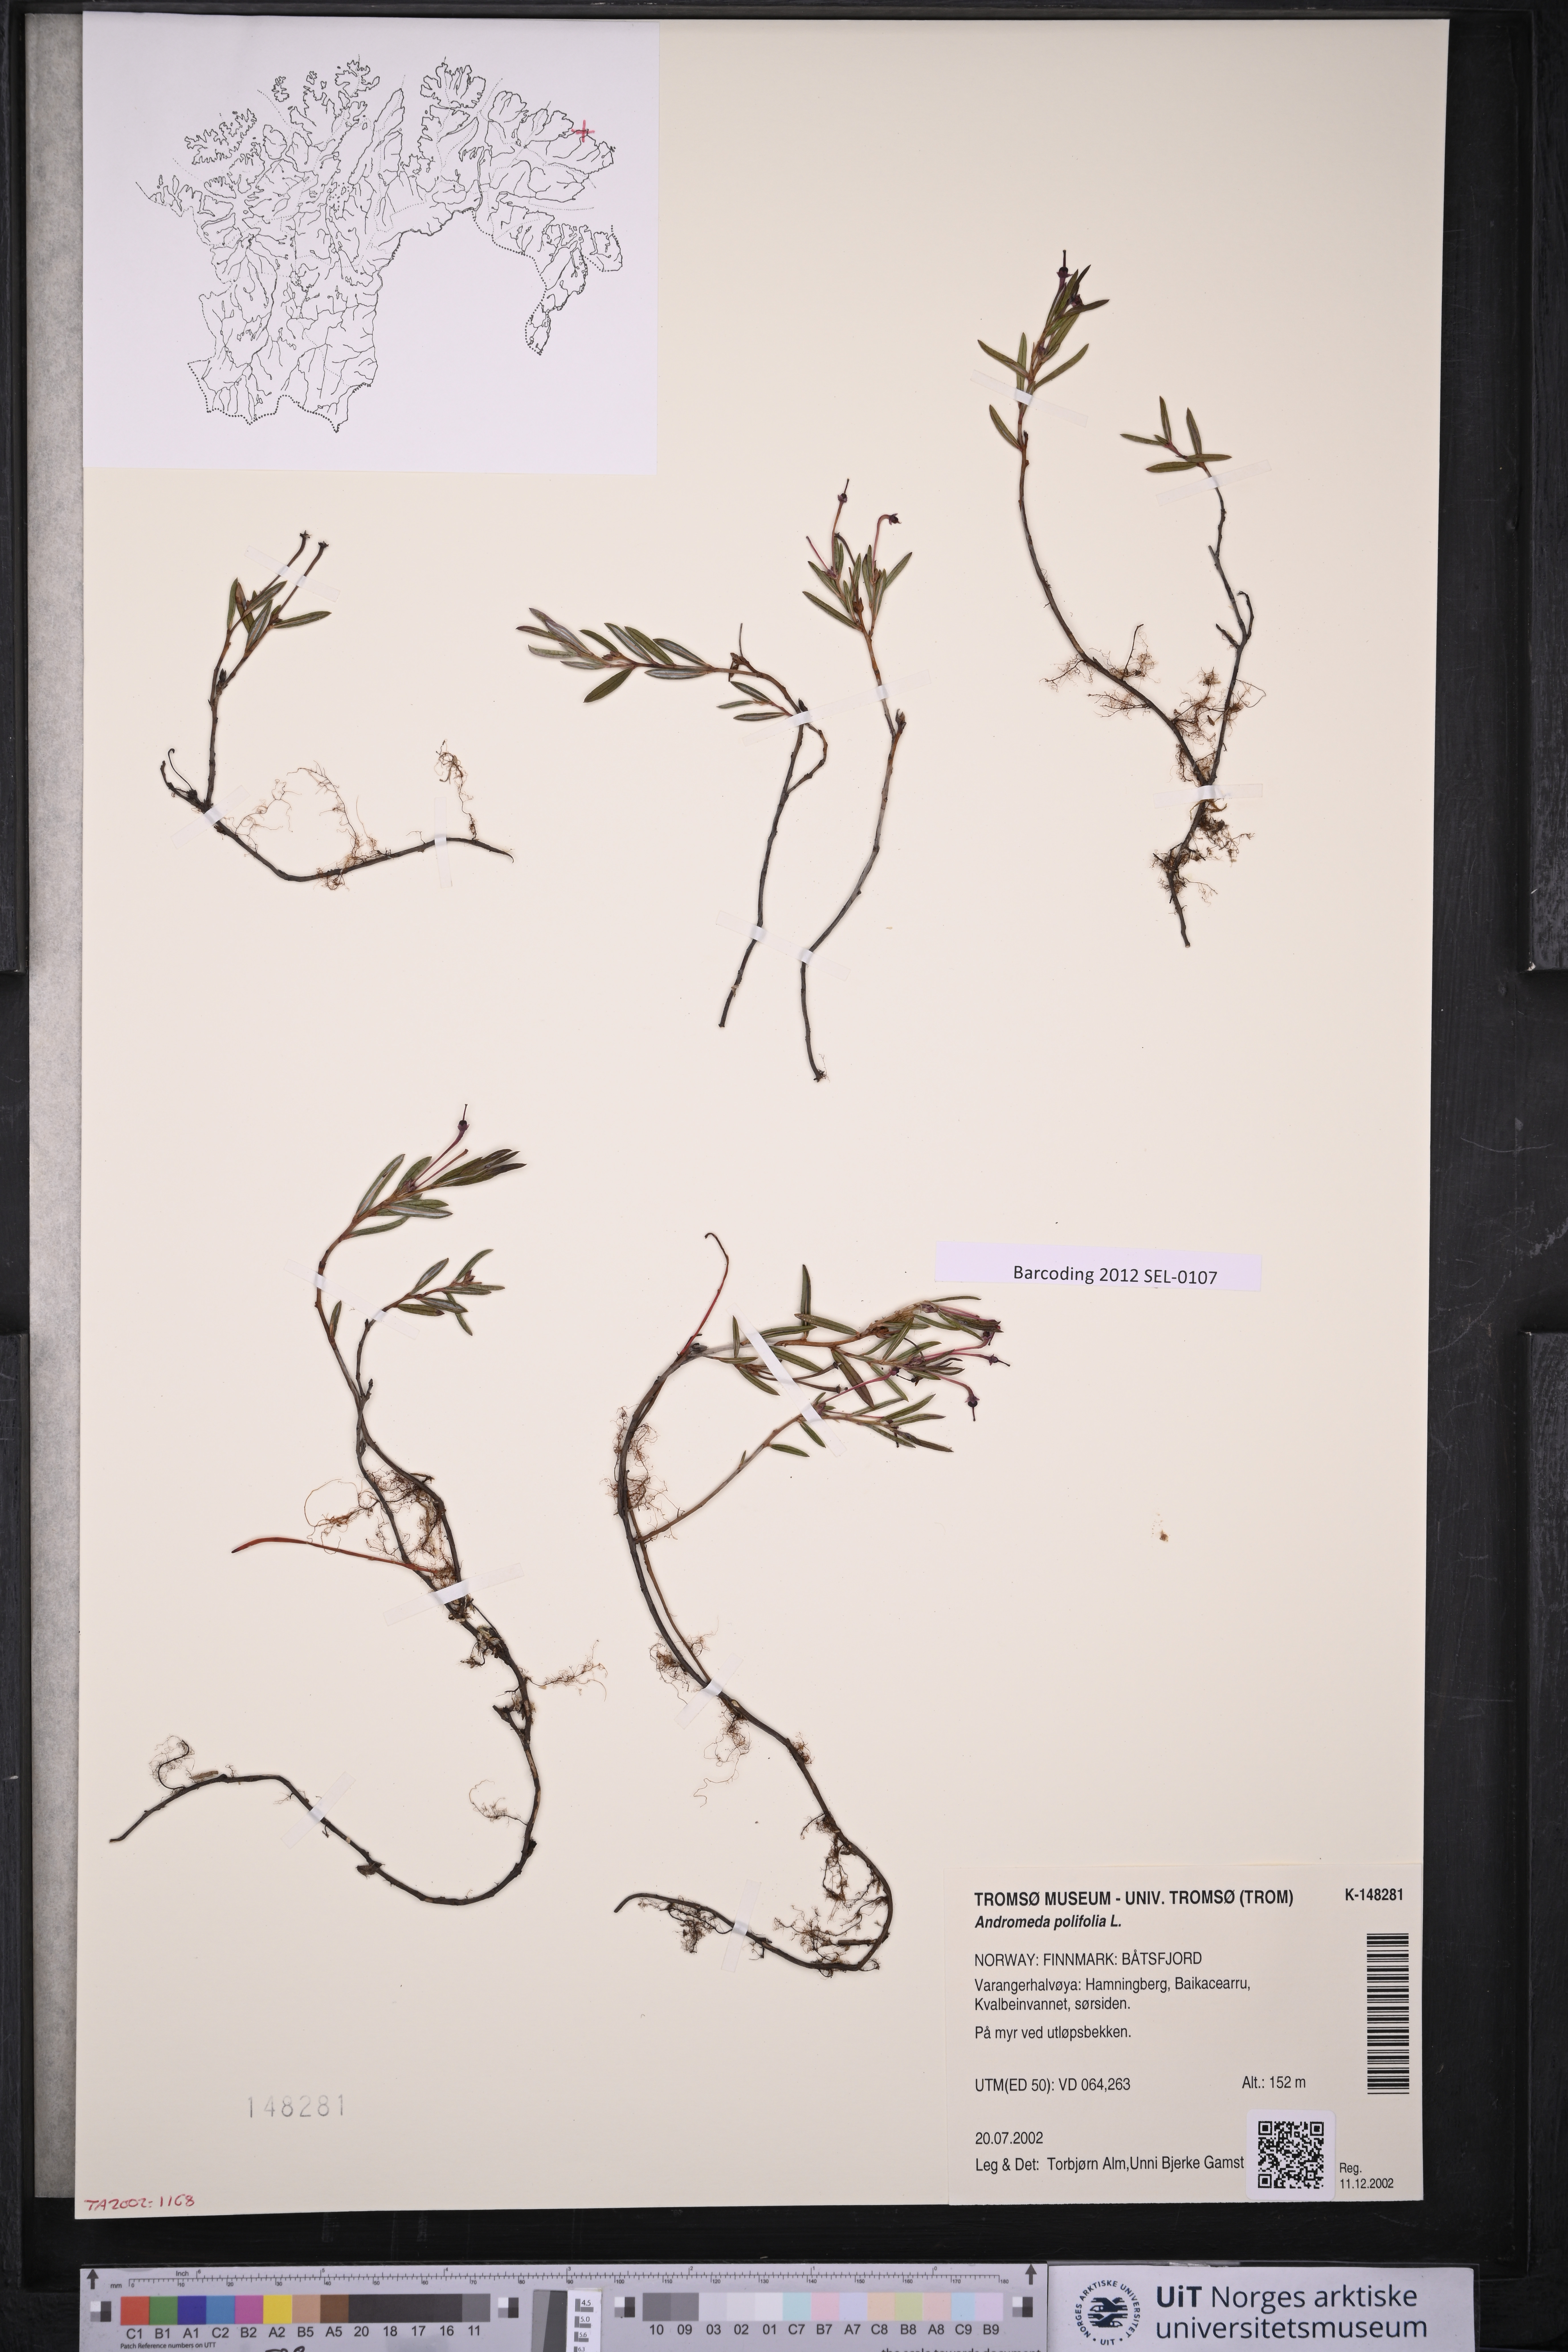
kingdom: Plantae
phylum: Tracheophyta
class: Magnoliopsida
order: Ericales
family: Ericaceae
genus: Andromeda
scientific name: Andromeda polifolia
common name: Bog-rosemary
